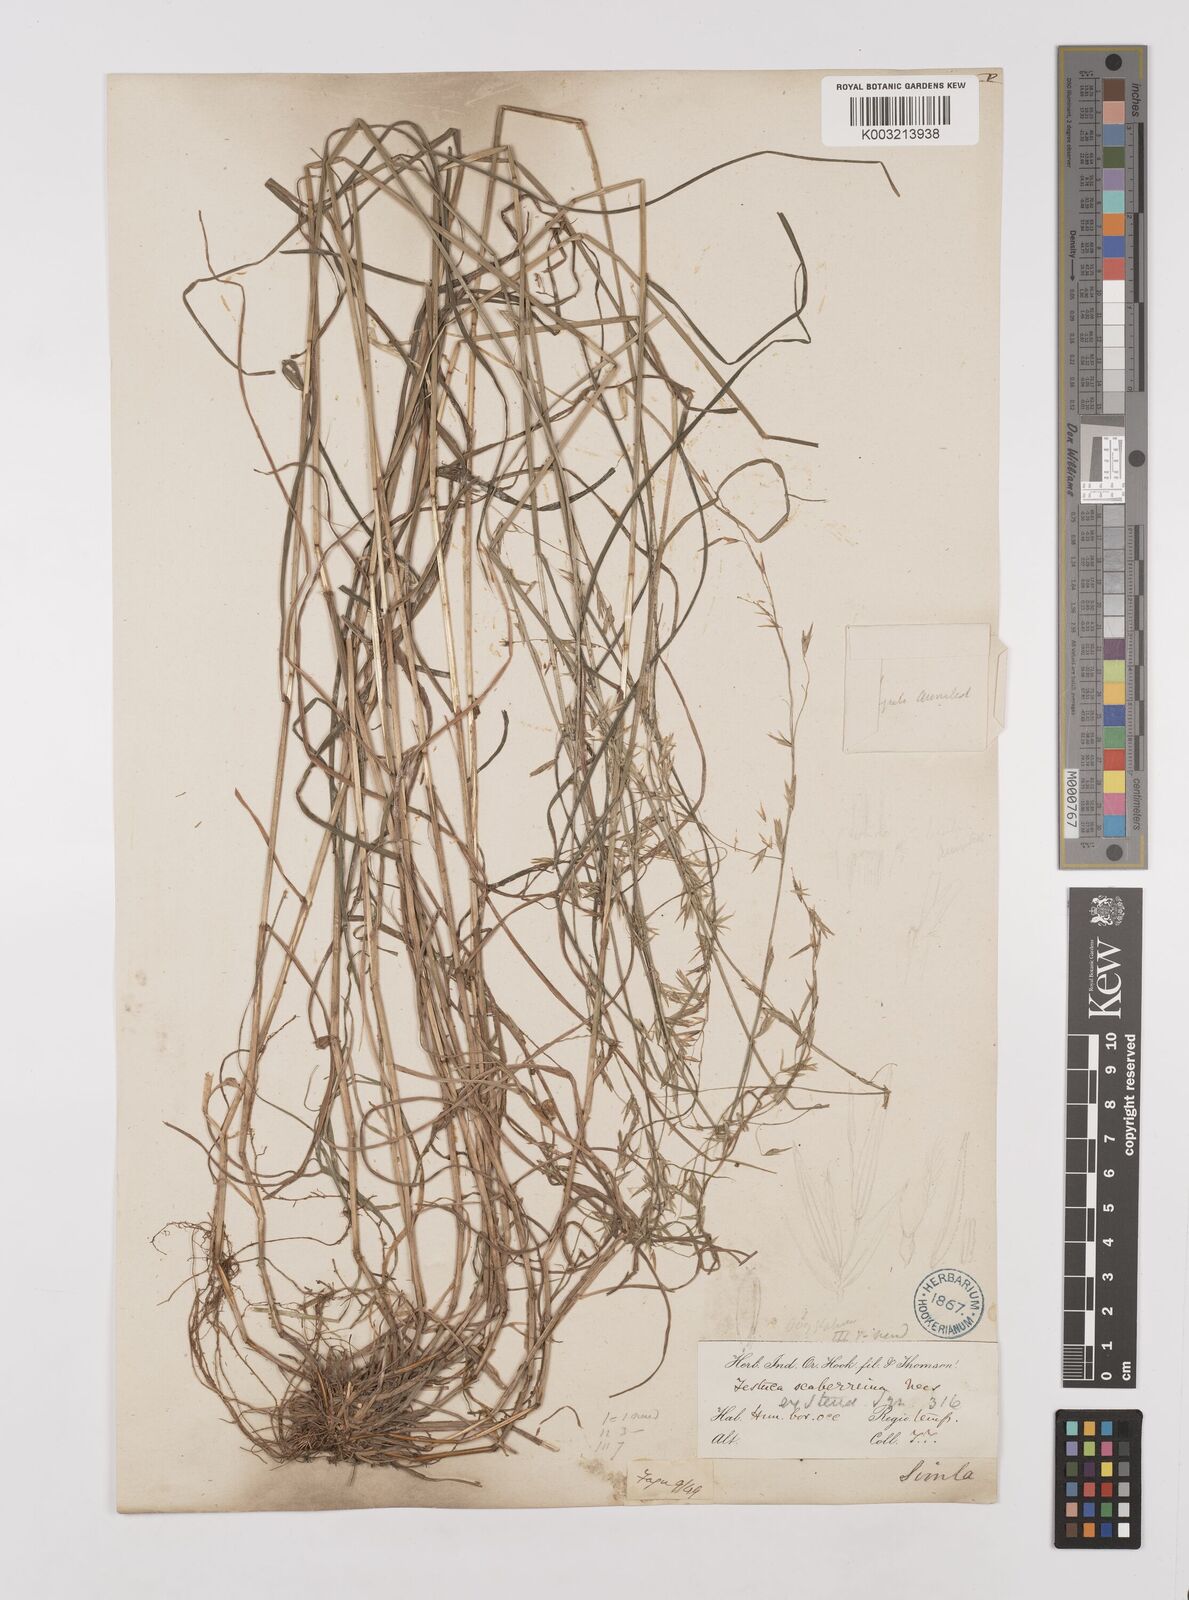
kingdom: Plantae
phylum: Tracheophyta
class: Liliopsida
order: Poales
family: Poaceae
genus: Melica
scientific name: Melica scaberrima
